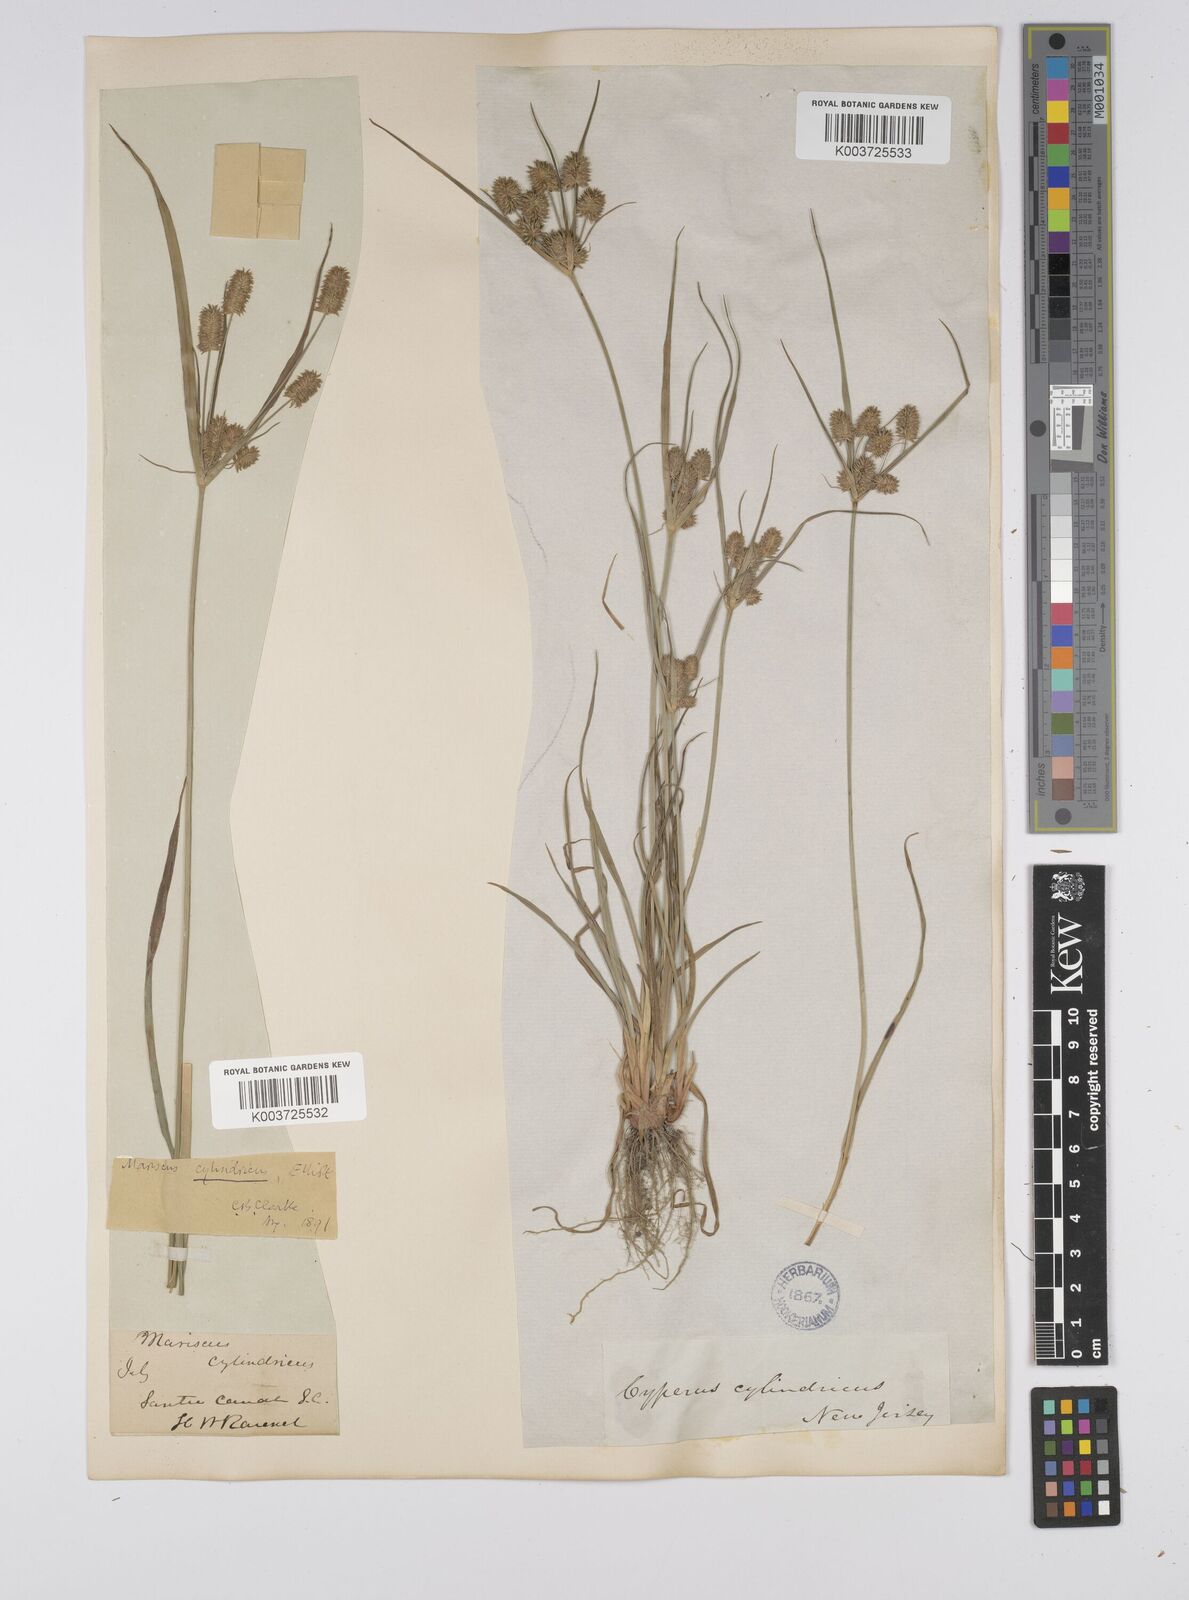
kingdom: Plantae
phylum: Tracheophyta
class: Liliopsida
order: Poales
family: Cyperaceae
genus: Cyperus
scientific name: Cyperus retrorsus
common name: Pinebarren flat sedge
